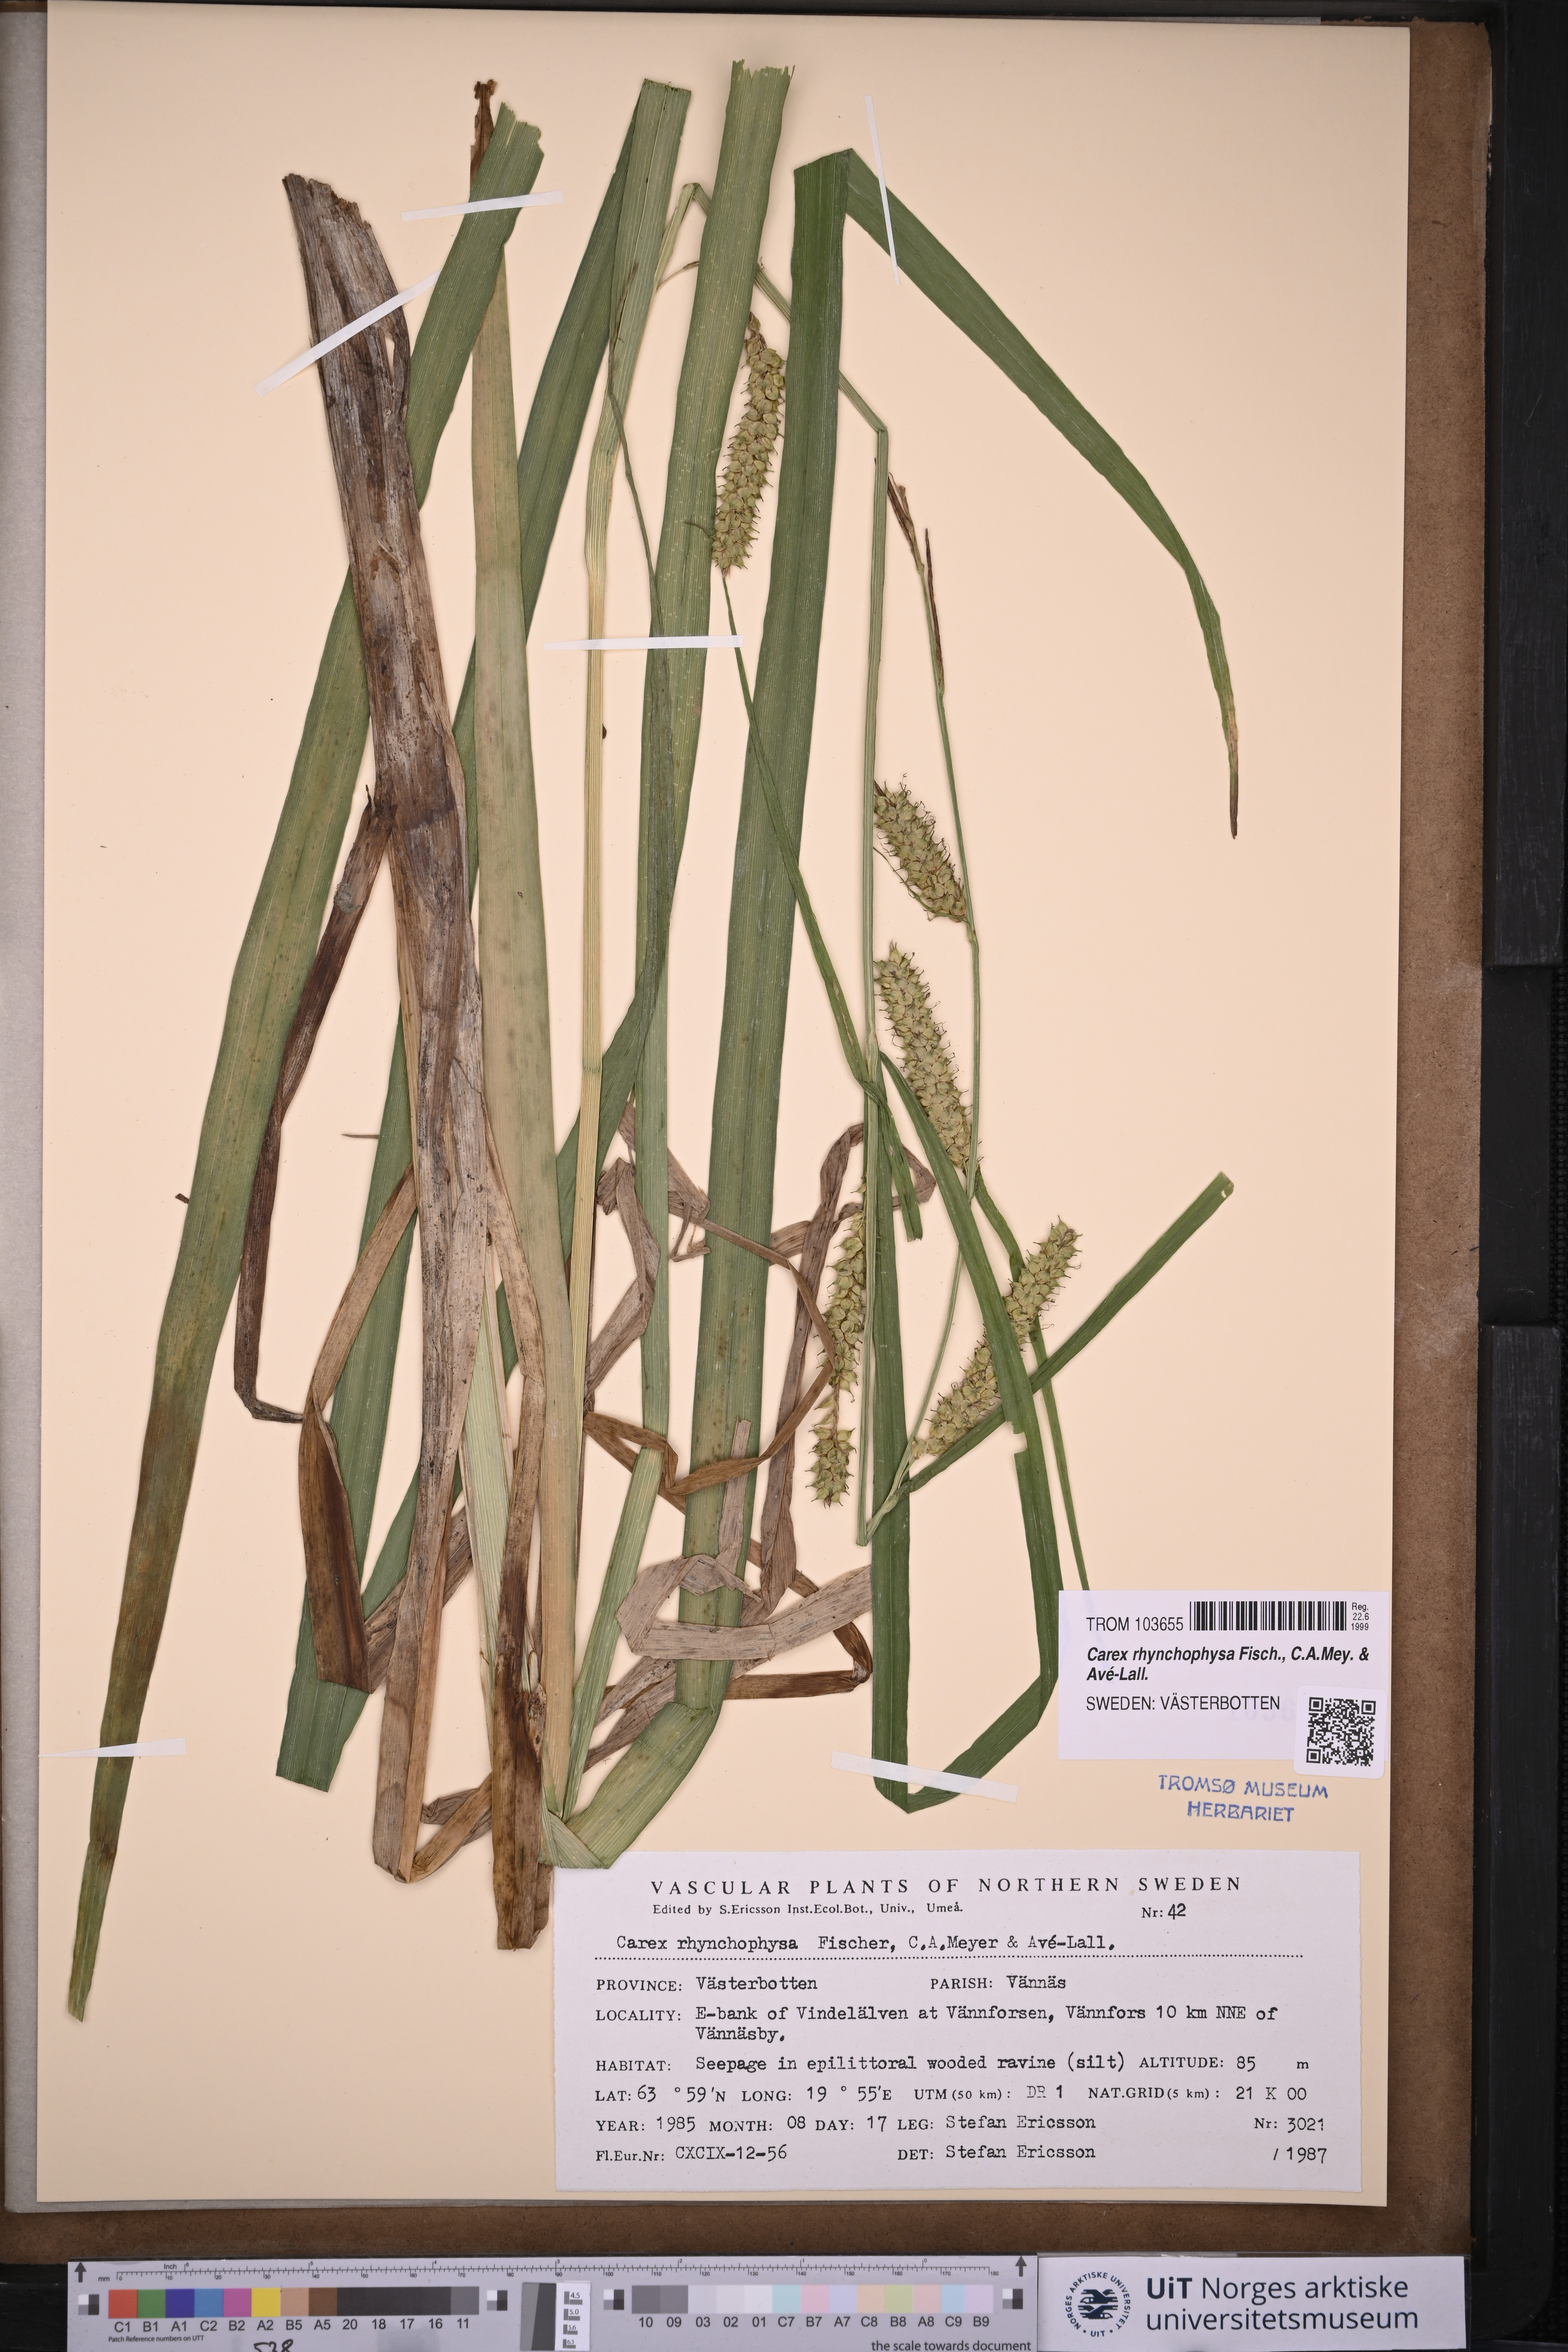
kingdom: Plantae
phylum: Tracheophyta
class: Liliopsida
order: Poales
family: Cyperaceae
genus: Carex
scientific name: Carex utriculata
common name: Beaked sedge
